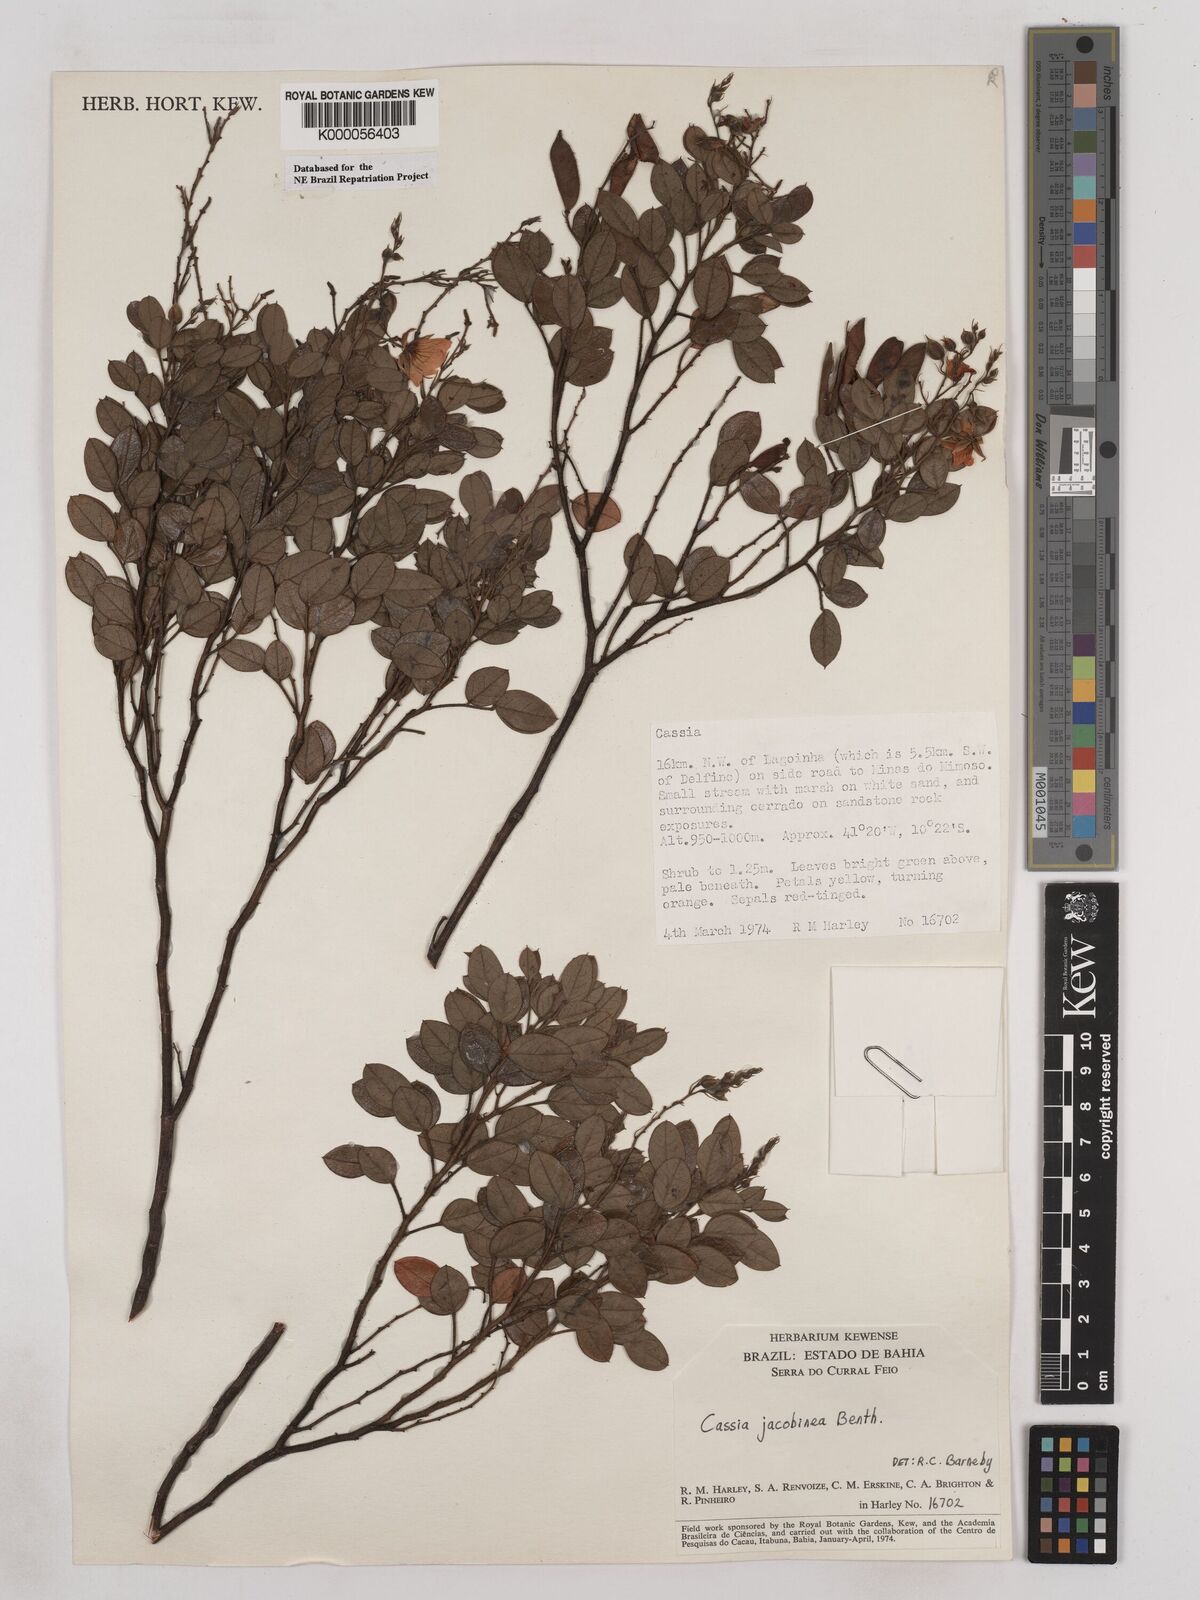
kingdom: Plantae
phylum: Tracheophyta
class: Magnoliopsida
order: Fabales
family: Fabaceae
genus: Chamaecrista
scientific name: Chamaecrista jacobinea
